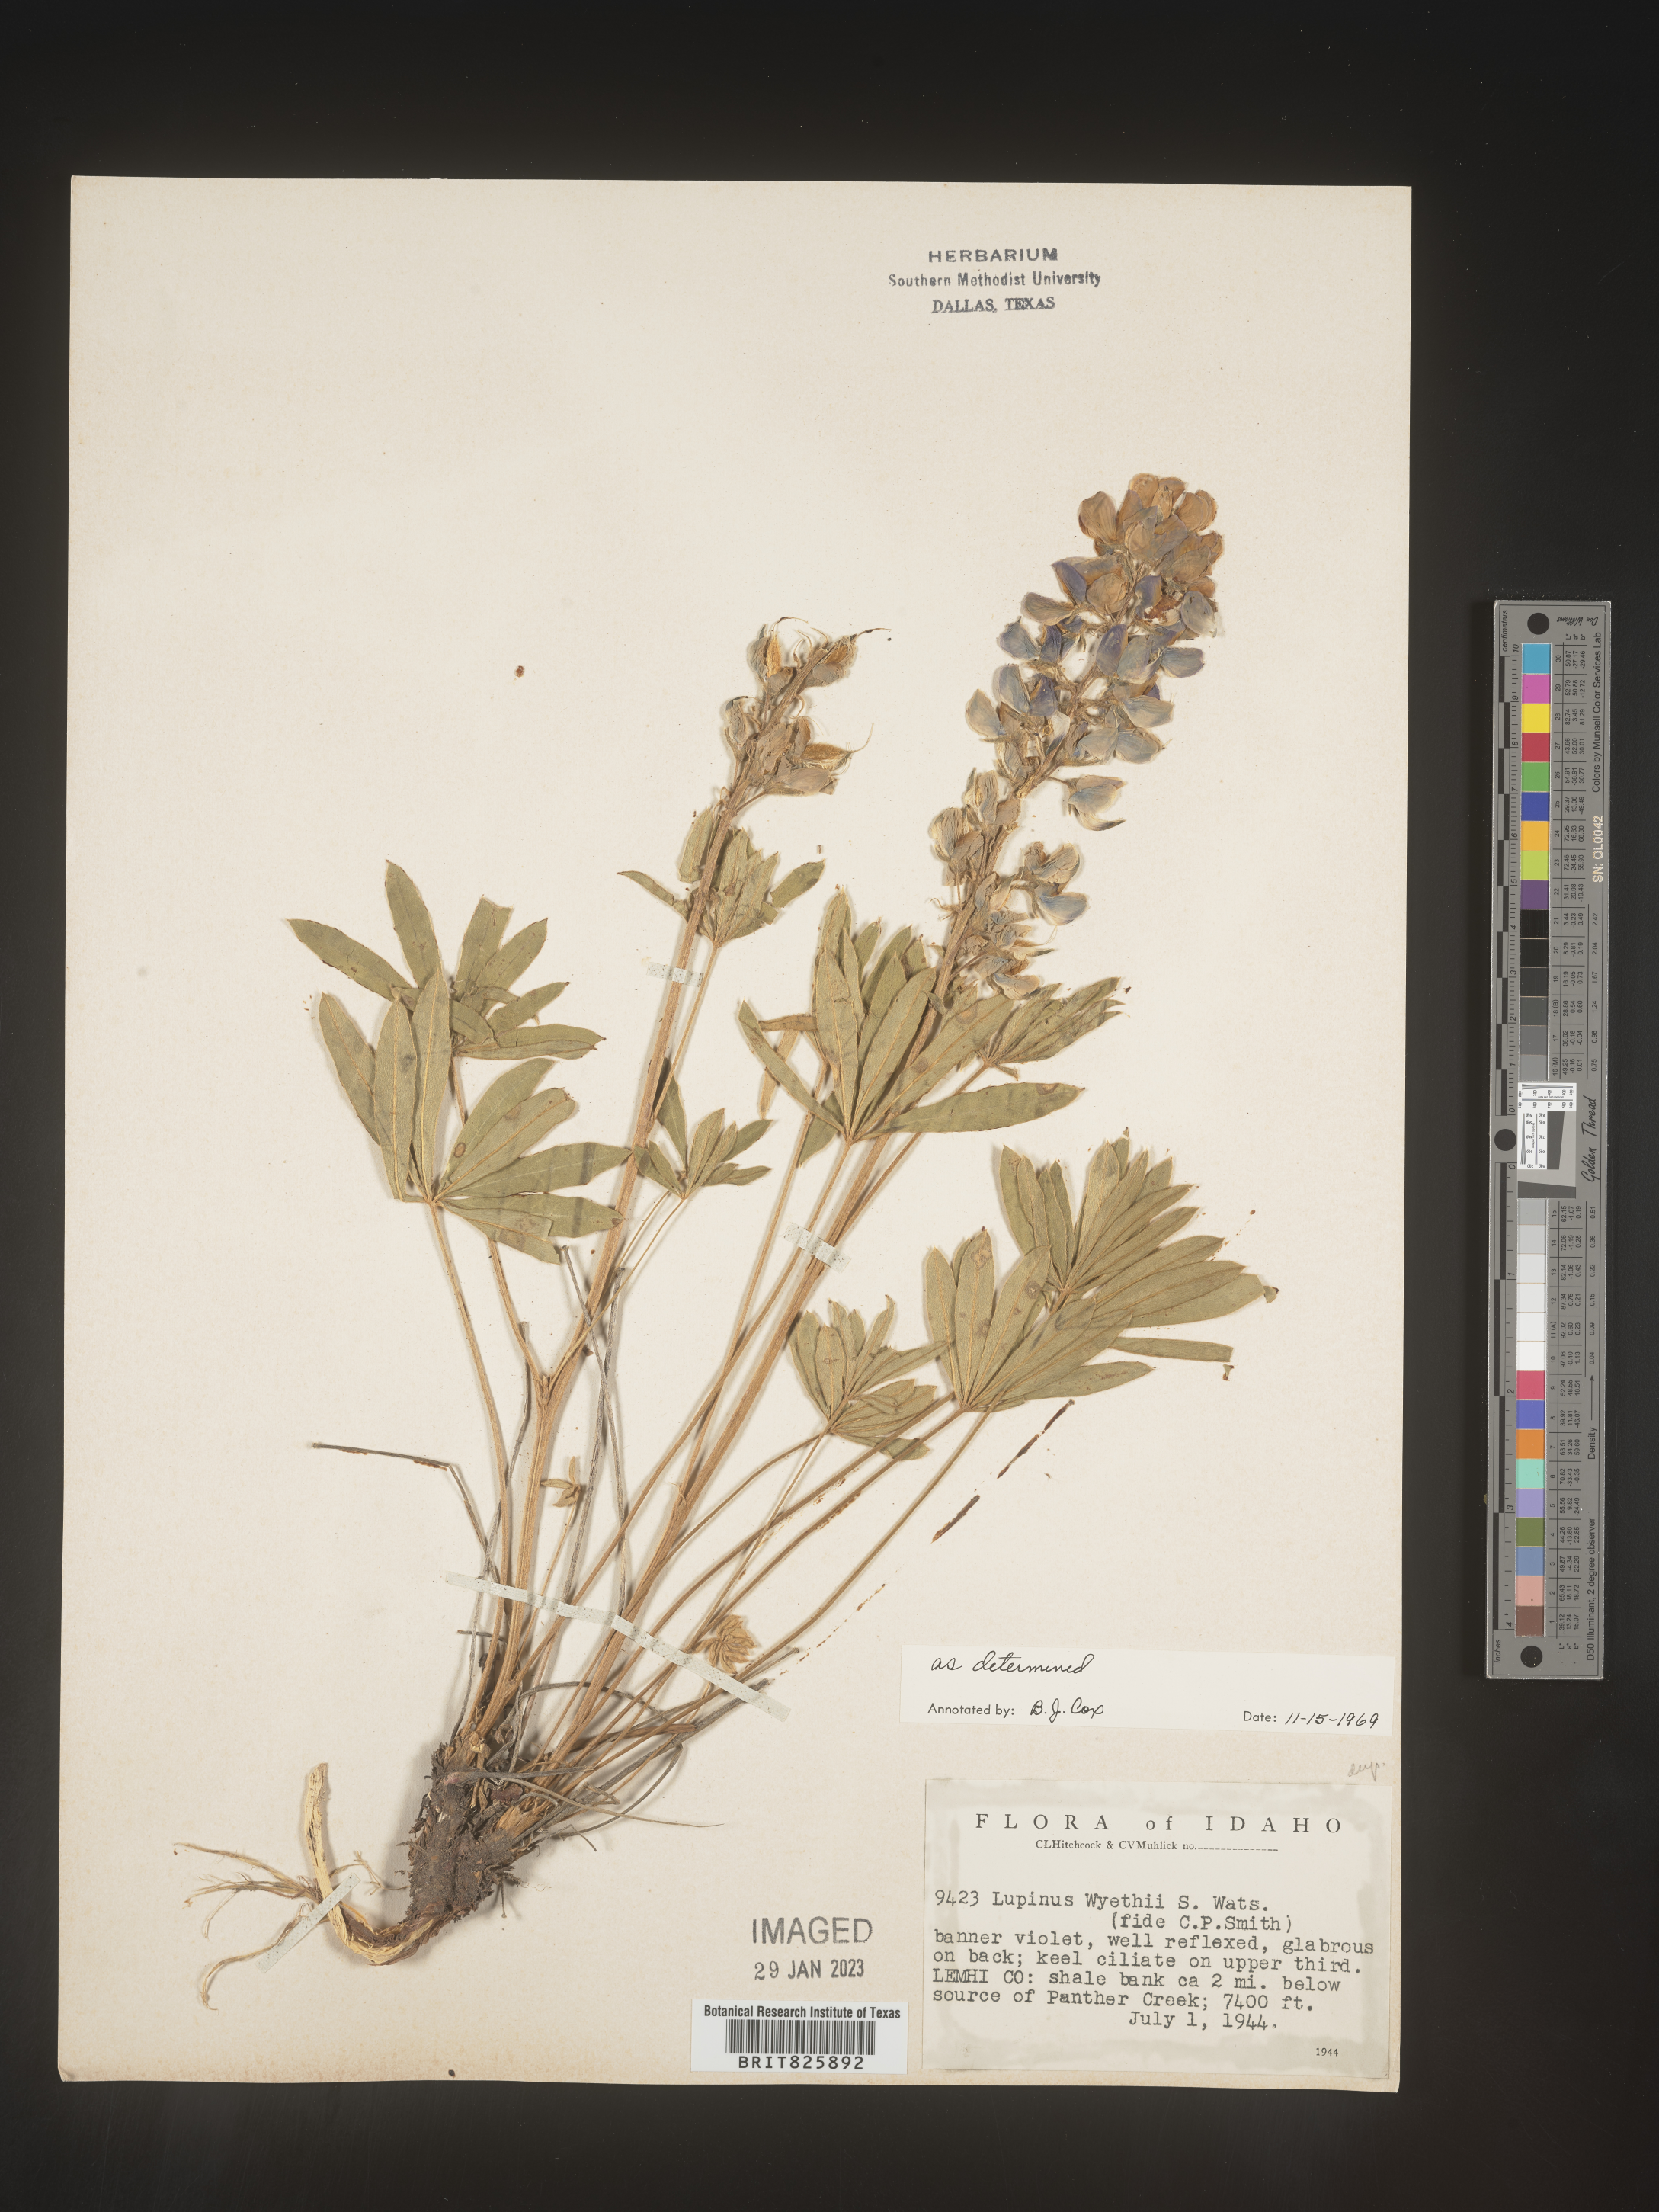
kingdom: Plantae
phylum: Tracheophyta
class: Magnoliopsida
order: Fabales
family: Fabaceae
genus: Lupinus
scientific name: Lupinus
